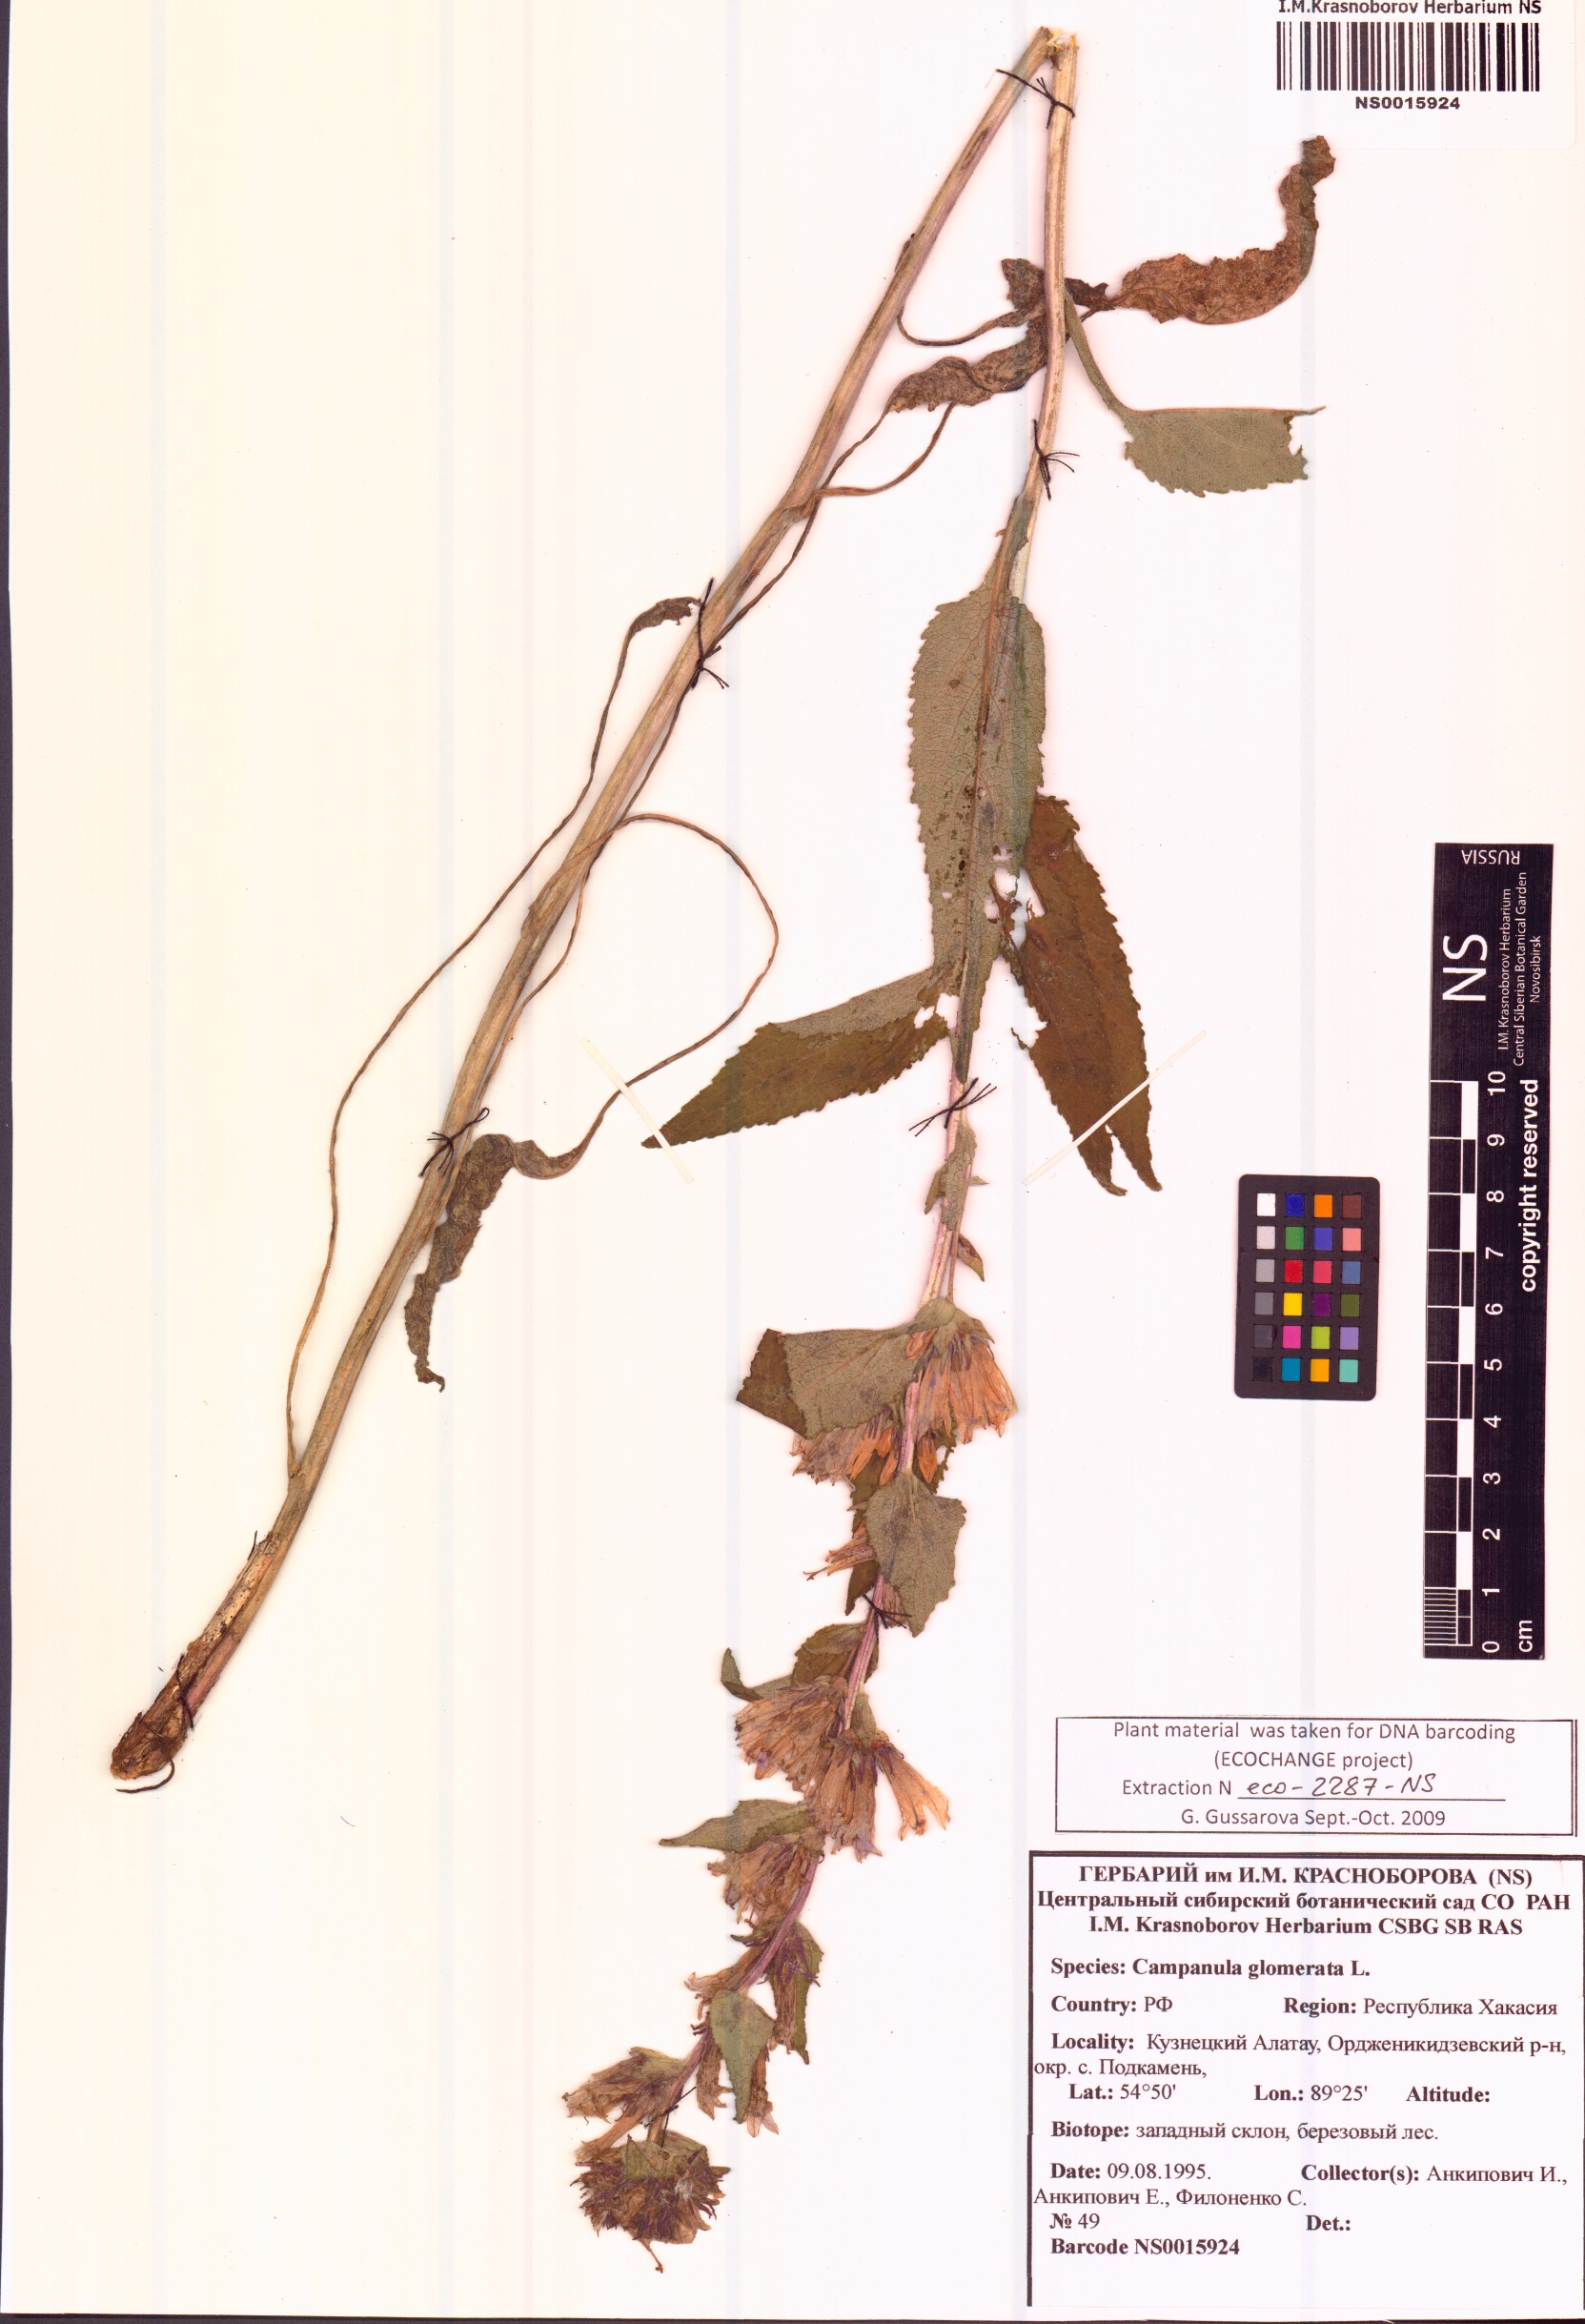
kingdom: Plantae
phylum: Tracheophyta
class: Magnoliopsida
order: Asterales
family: Campanulaceae
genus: Campanula
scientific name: Campanula glomerata
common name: Clustered bellflower
